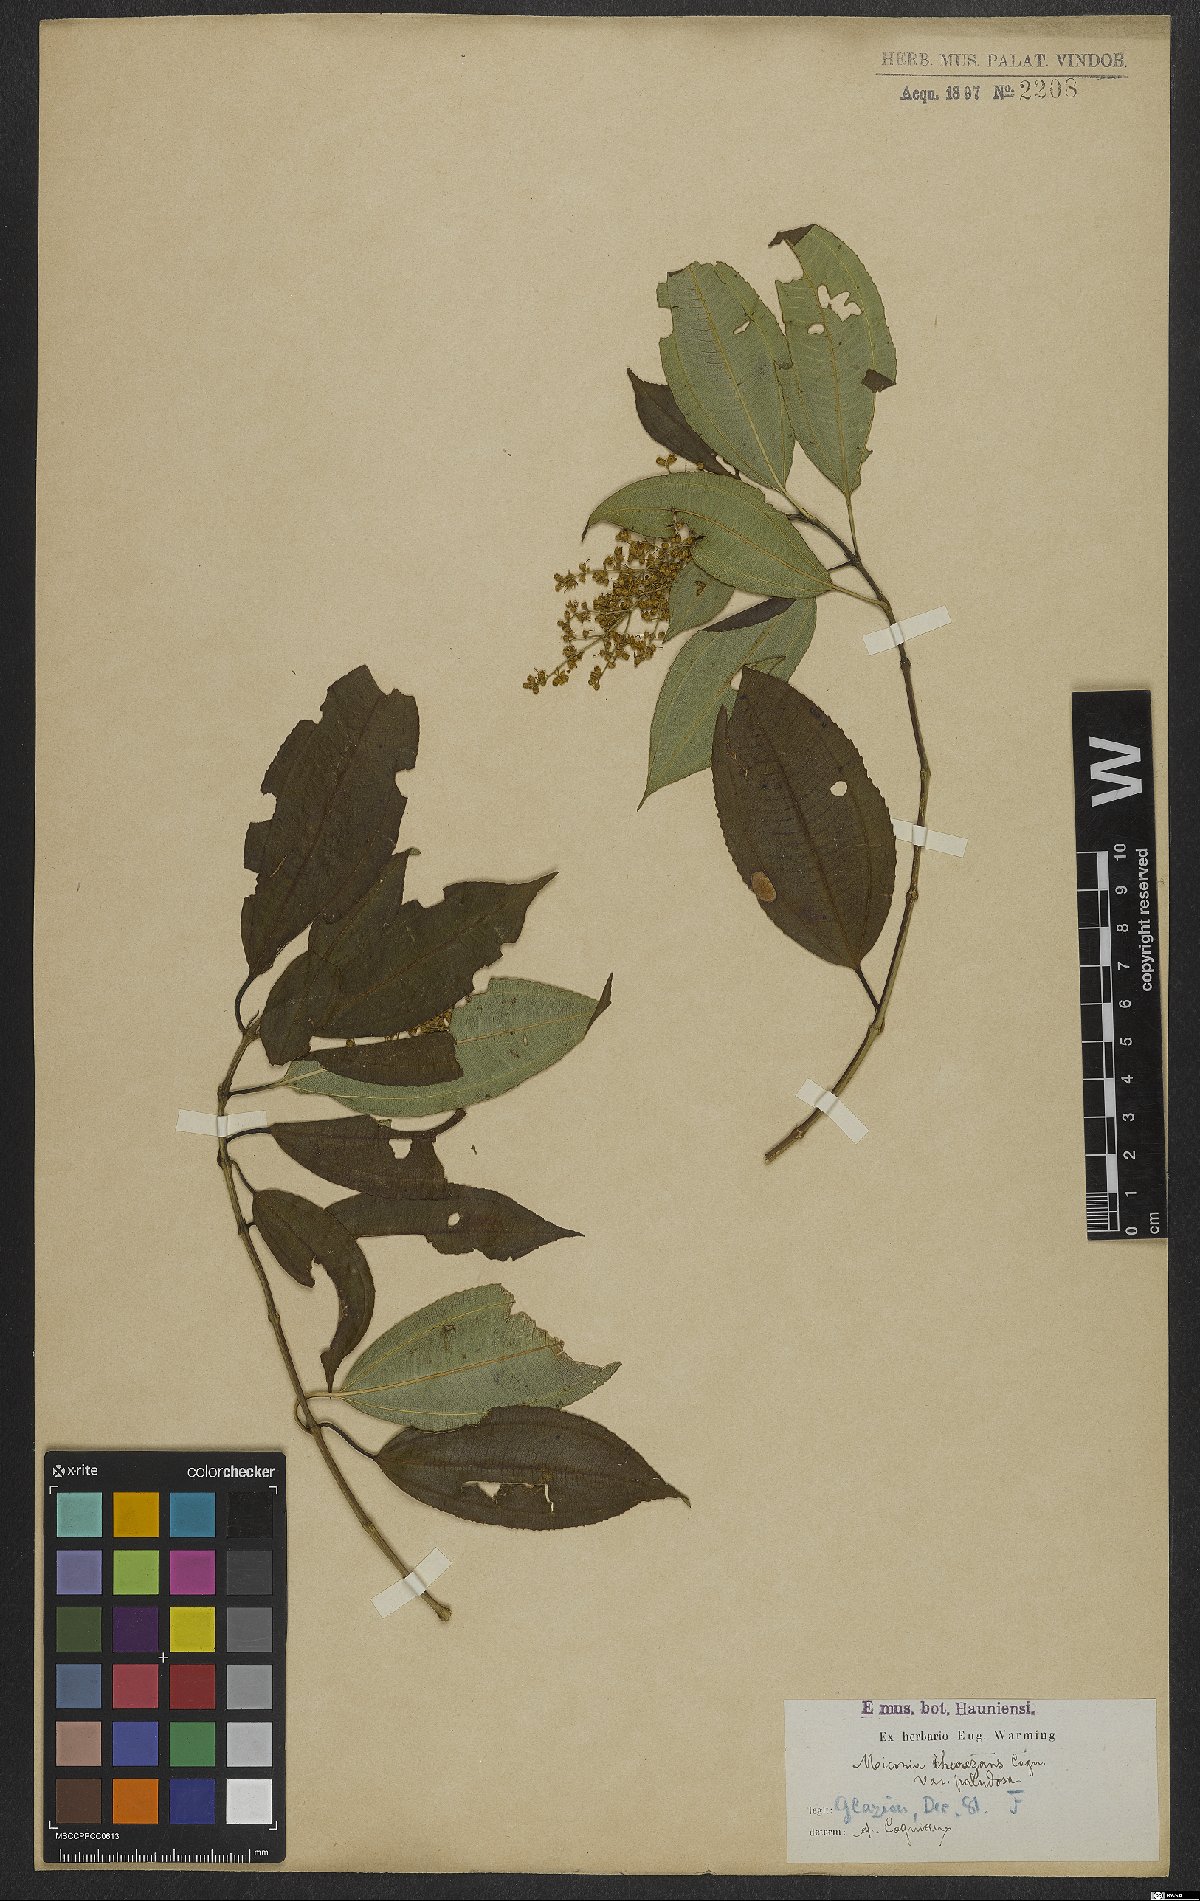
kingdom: Plantae
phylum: Tracheophyta
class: Magnoliopsida
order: Myrtales
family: Melastomataceae
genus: Miconia
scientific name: Miconia theizans
